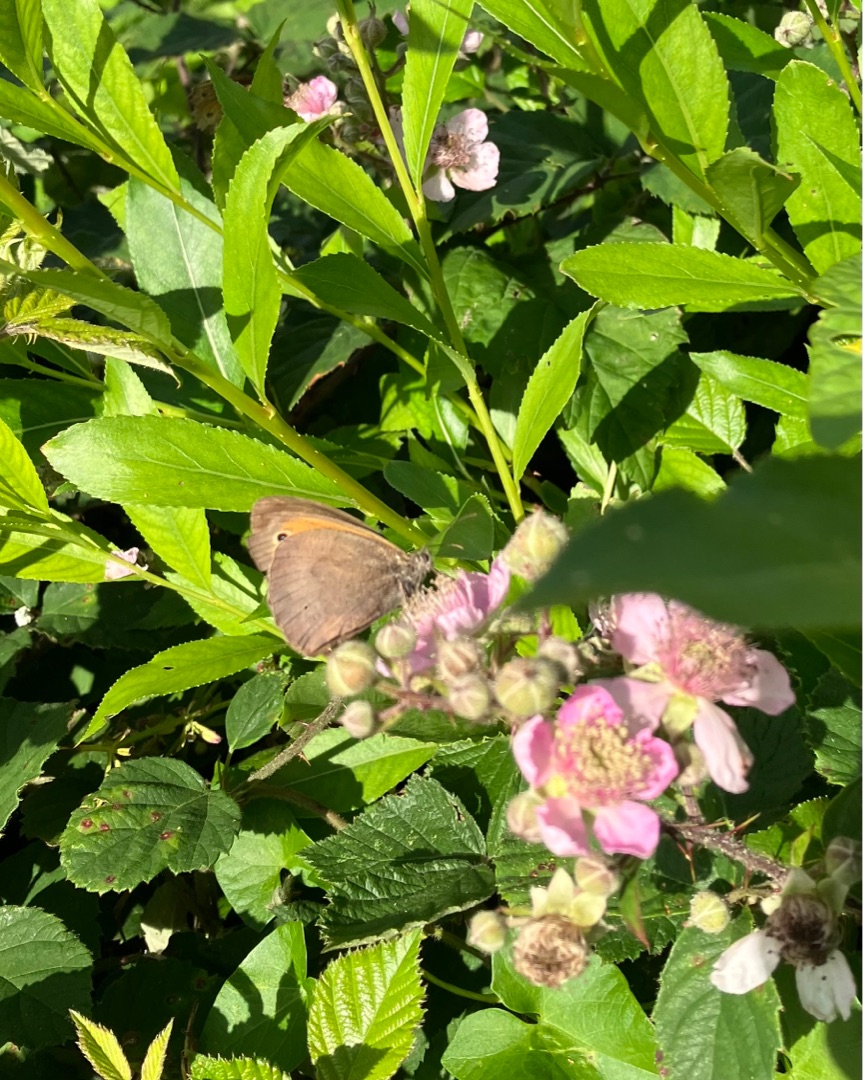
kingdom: Animalia
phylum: Arthropoda
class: Insecta
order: Lepidoptera
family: Nymphalidae
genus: Maniola
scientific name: Maniola jurtina
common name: Græsrandøje
